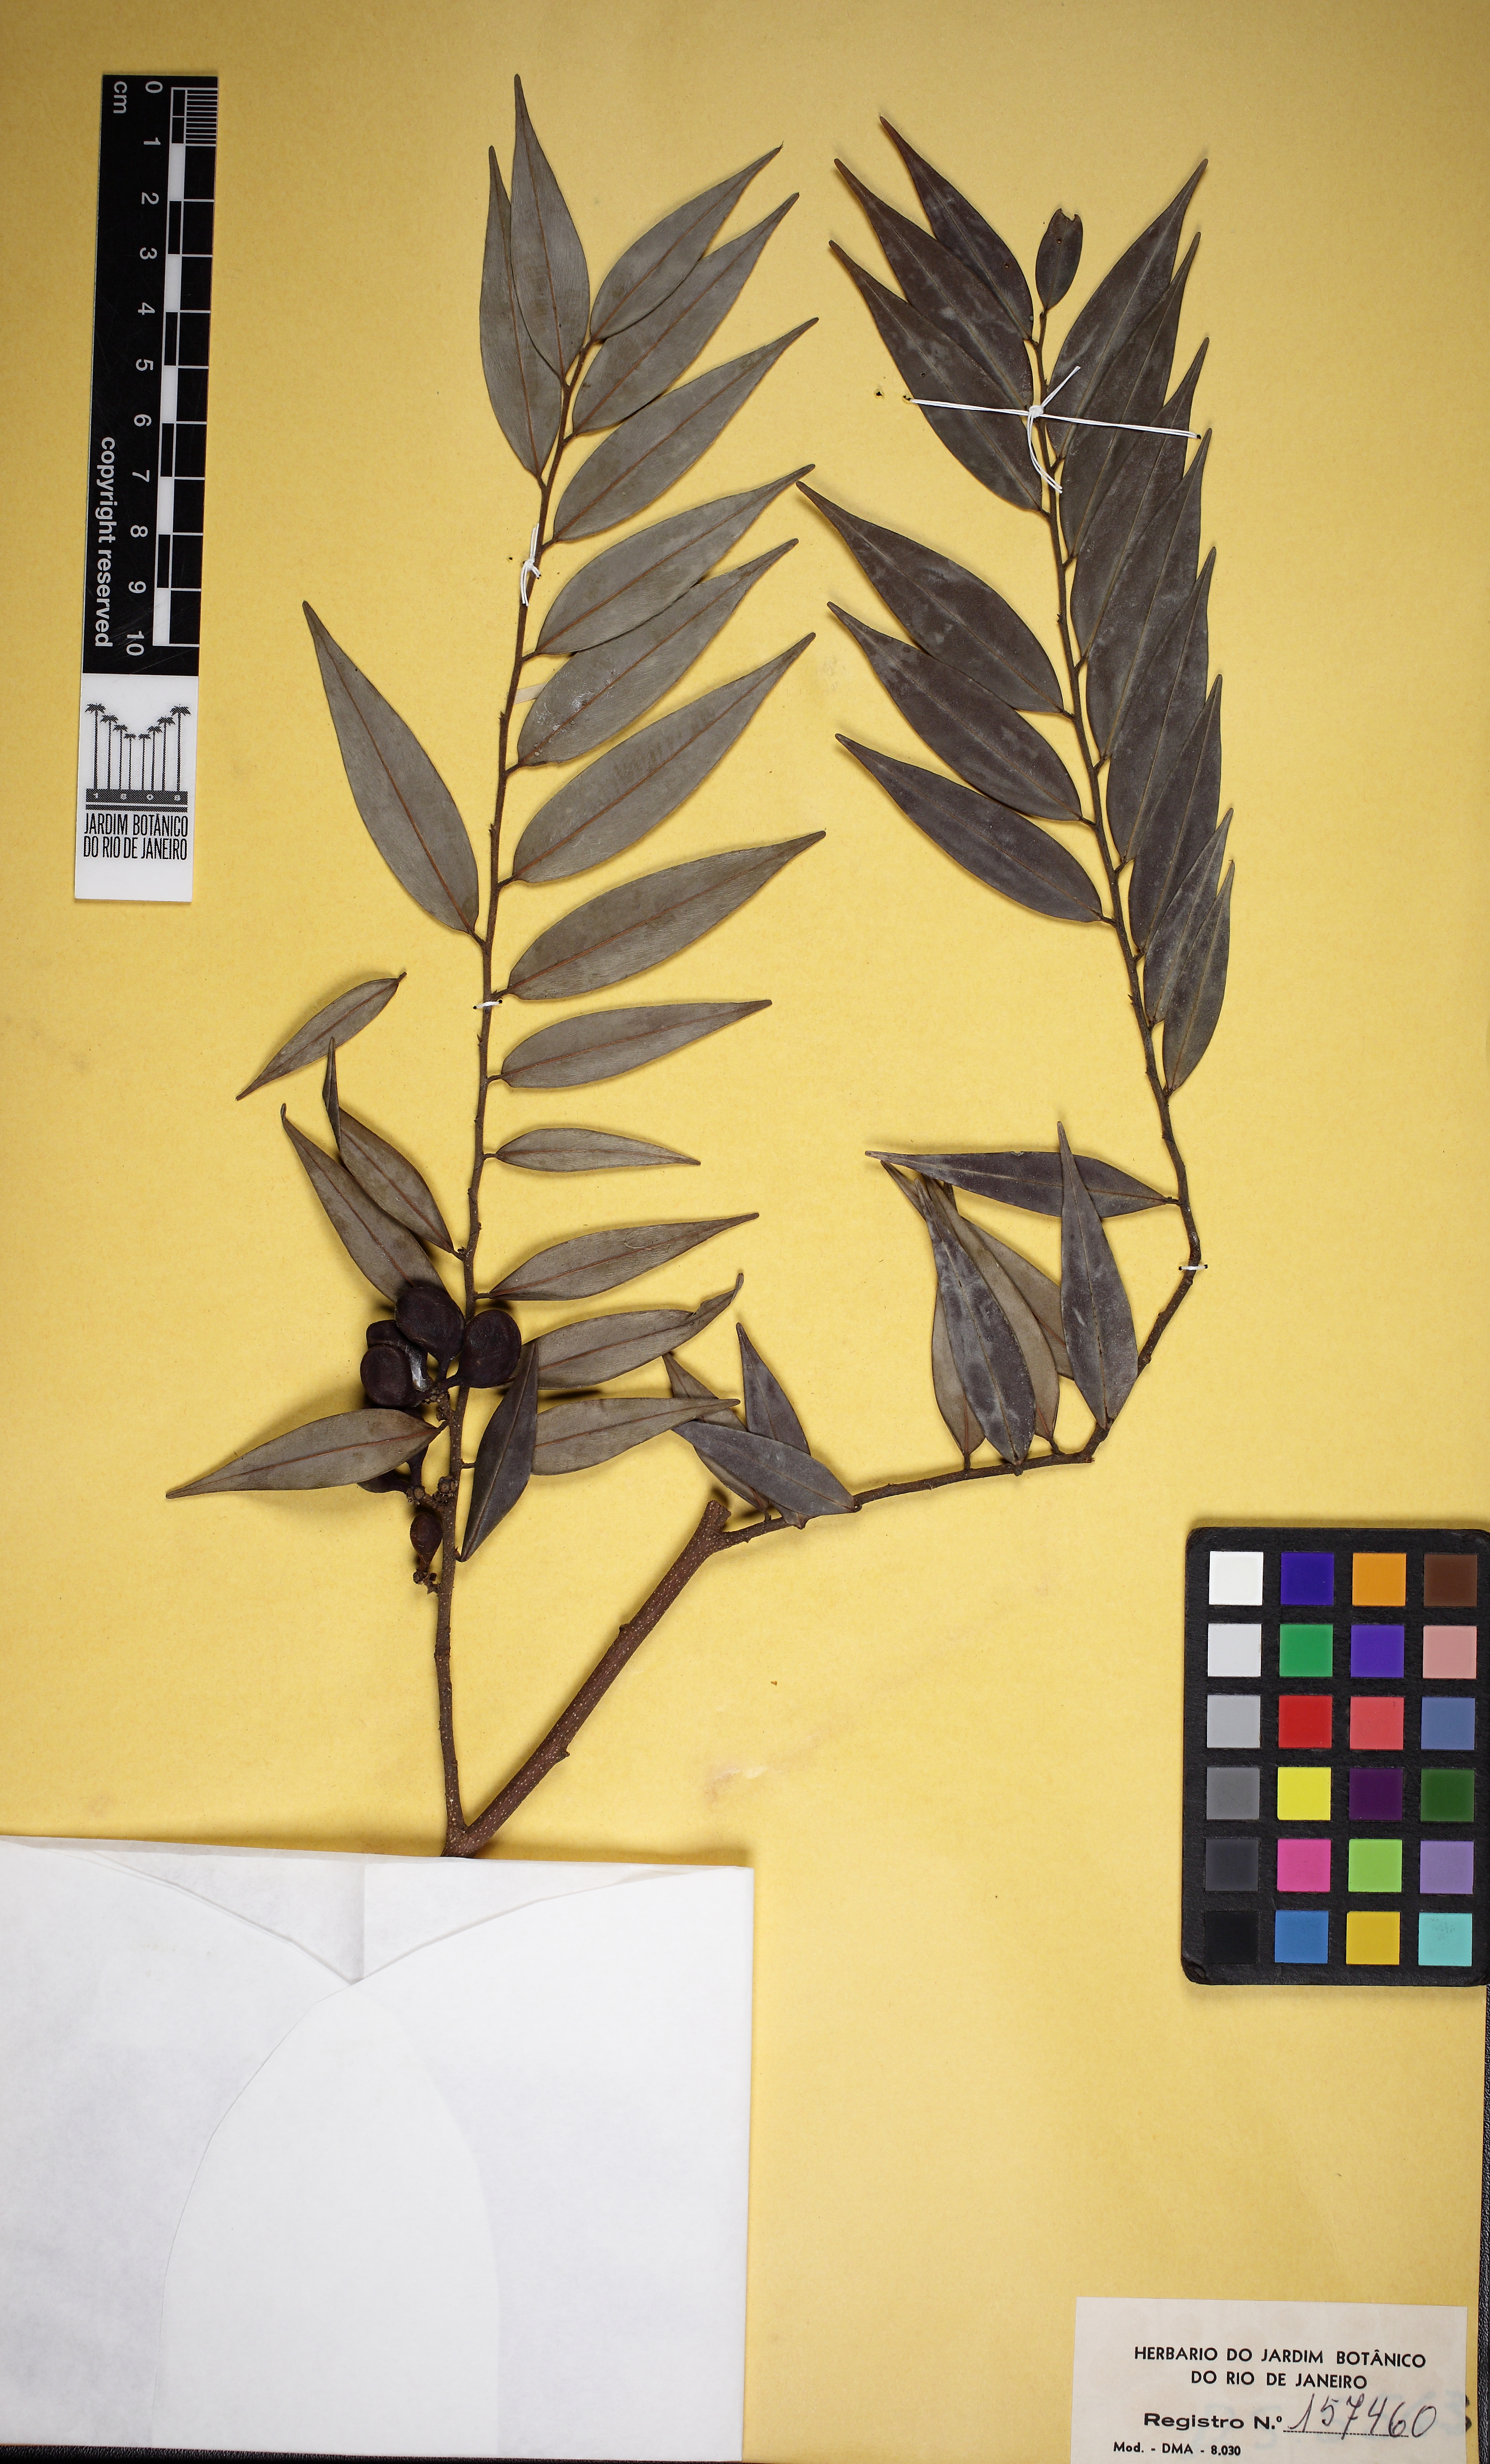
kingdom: Plantae
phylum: Tracheophyta
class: Magnoliopsida
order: Magnoliales
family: Annonaceae
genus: Xylopia
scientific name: Xylopia sericea
